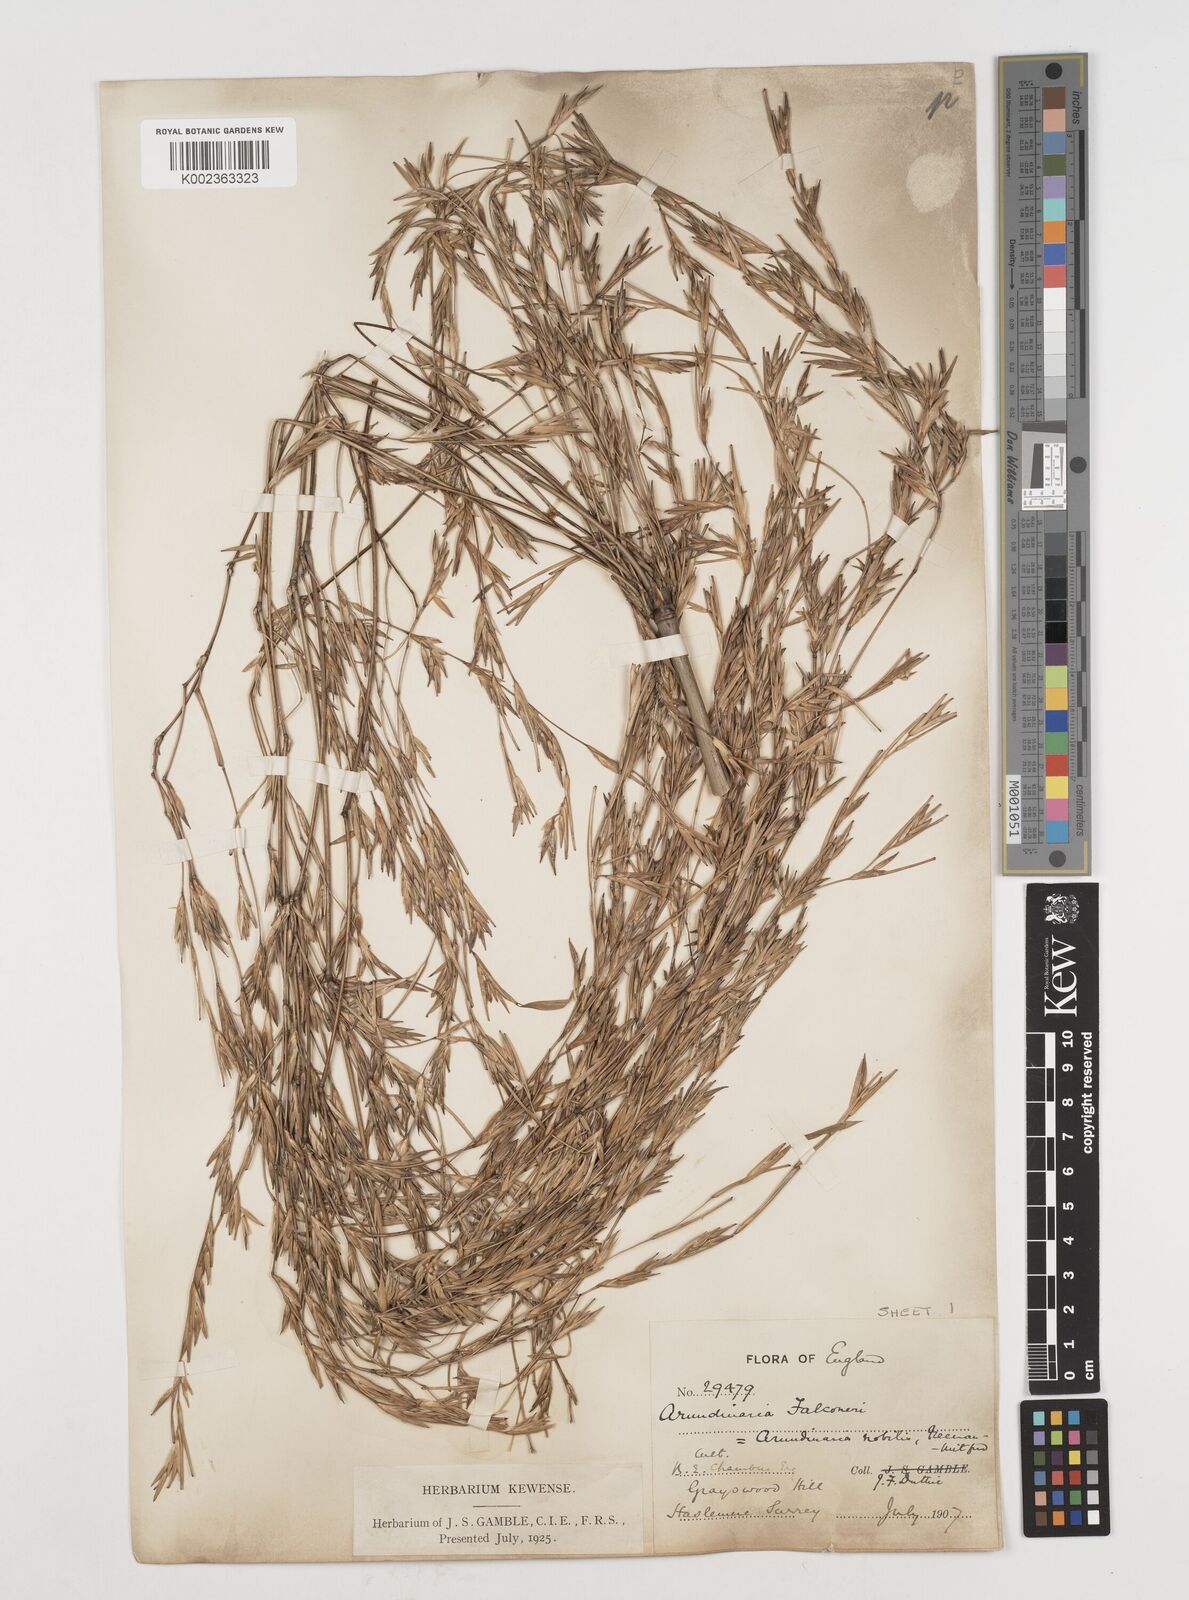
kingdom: Plantae
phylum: Tracheophyta
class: Liliopsida
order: Poales
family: Poaceae
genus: Himalayacalamus
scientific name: Himalayacalamus falconeri
